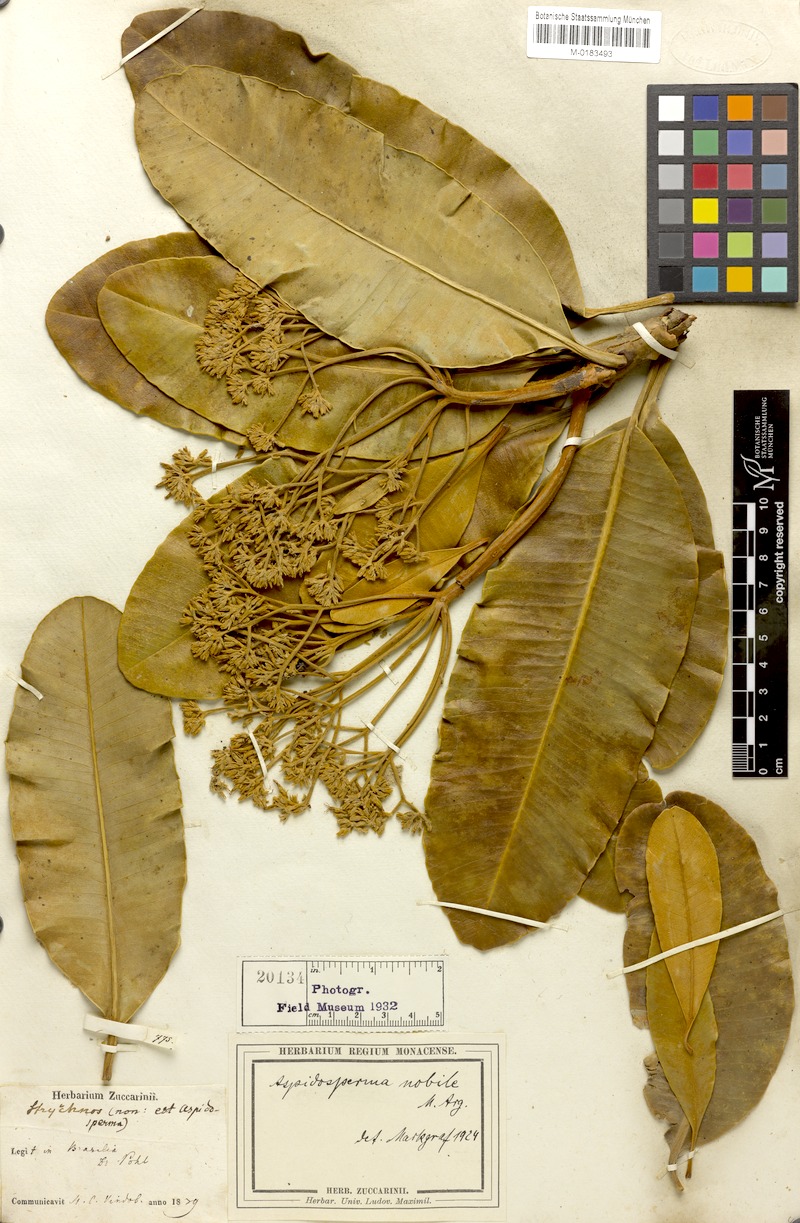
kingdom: Plantae
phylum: Tracheophyta
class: Magnoliopsida
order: Gentianales
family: Apocynaceae
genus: Aspidosperma
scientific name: Aspidosperma nobile
